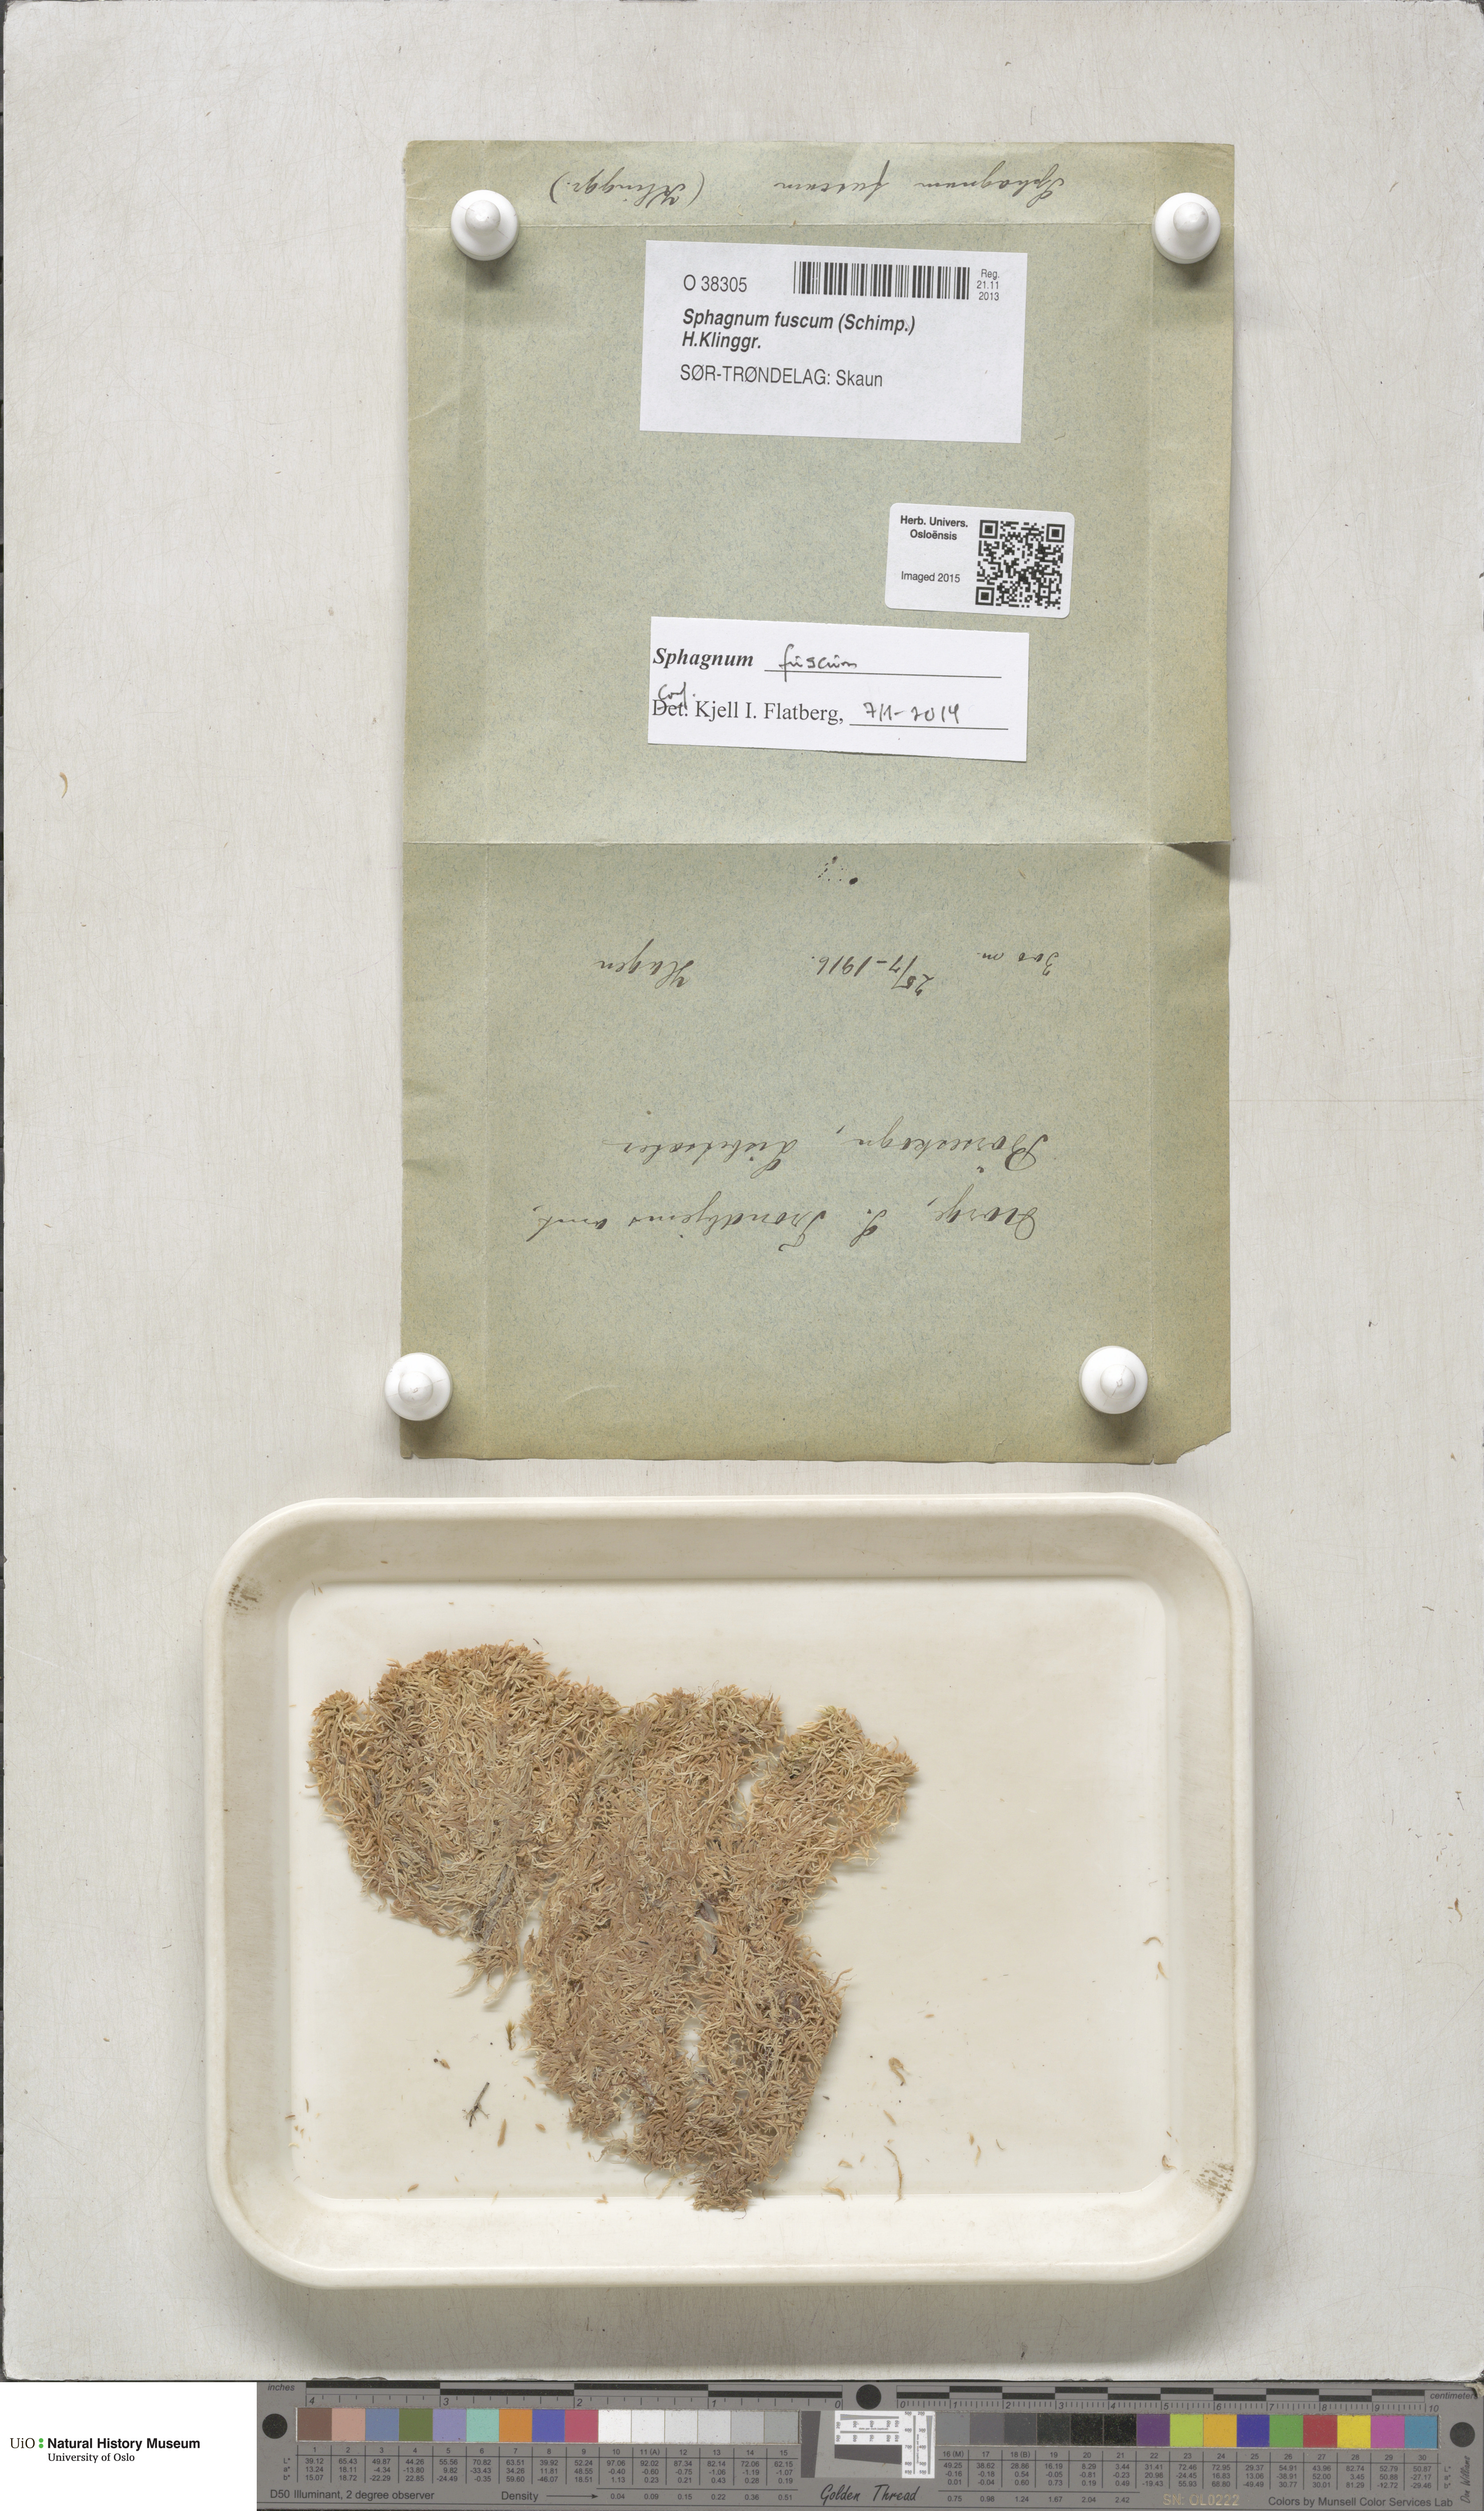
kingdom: Plantae
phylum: Bryophyta
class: Sphagnopsida
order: Sphagnales
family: Sphagnaceae
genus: Sphagnum
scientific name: Sphagnum fuscum
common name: Brown peat moss
